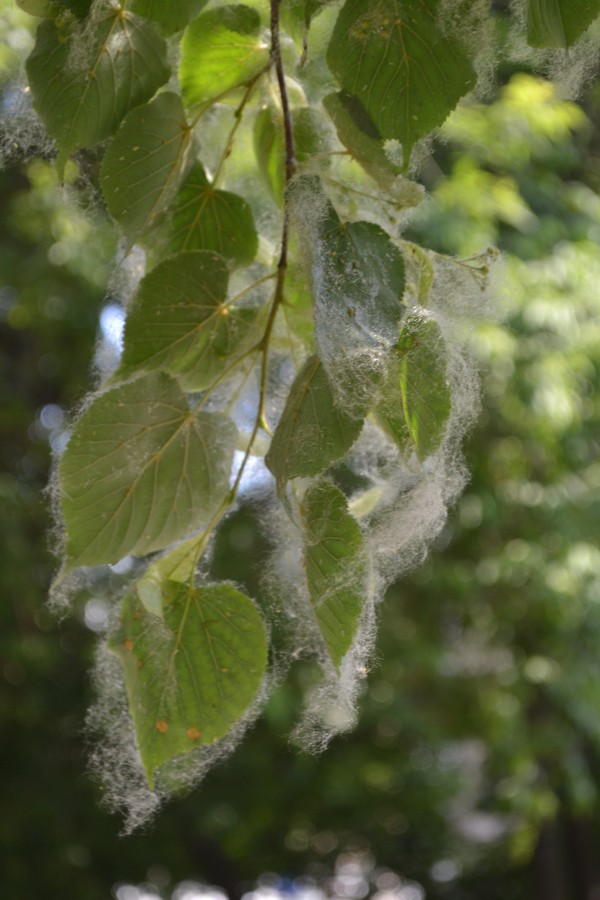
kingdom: Plantae
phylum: Tracheophyta
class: Magnoliopsida
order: Malvales
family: Malvaceae
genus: Tilia
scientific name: Tilia cordata
